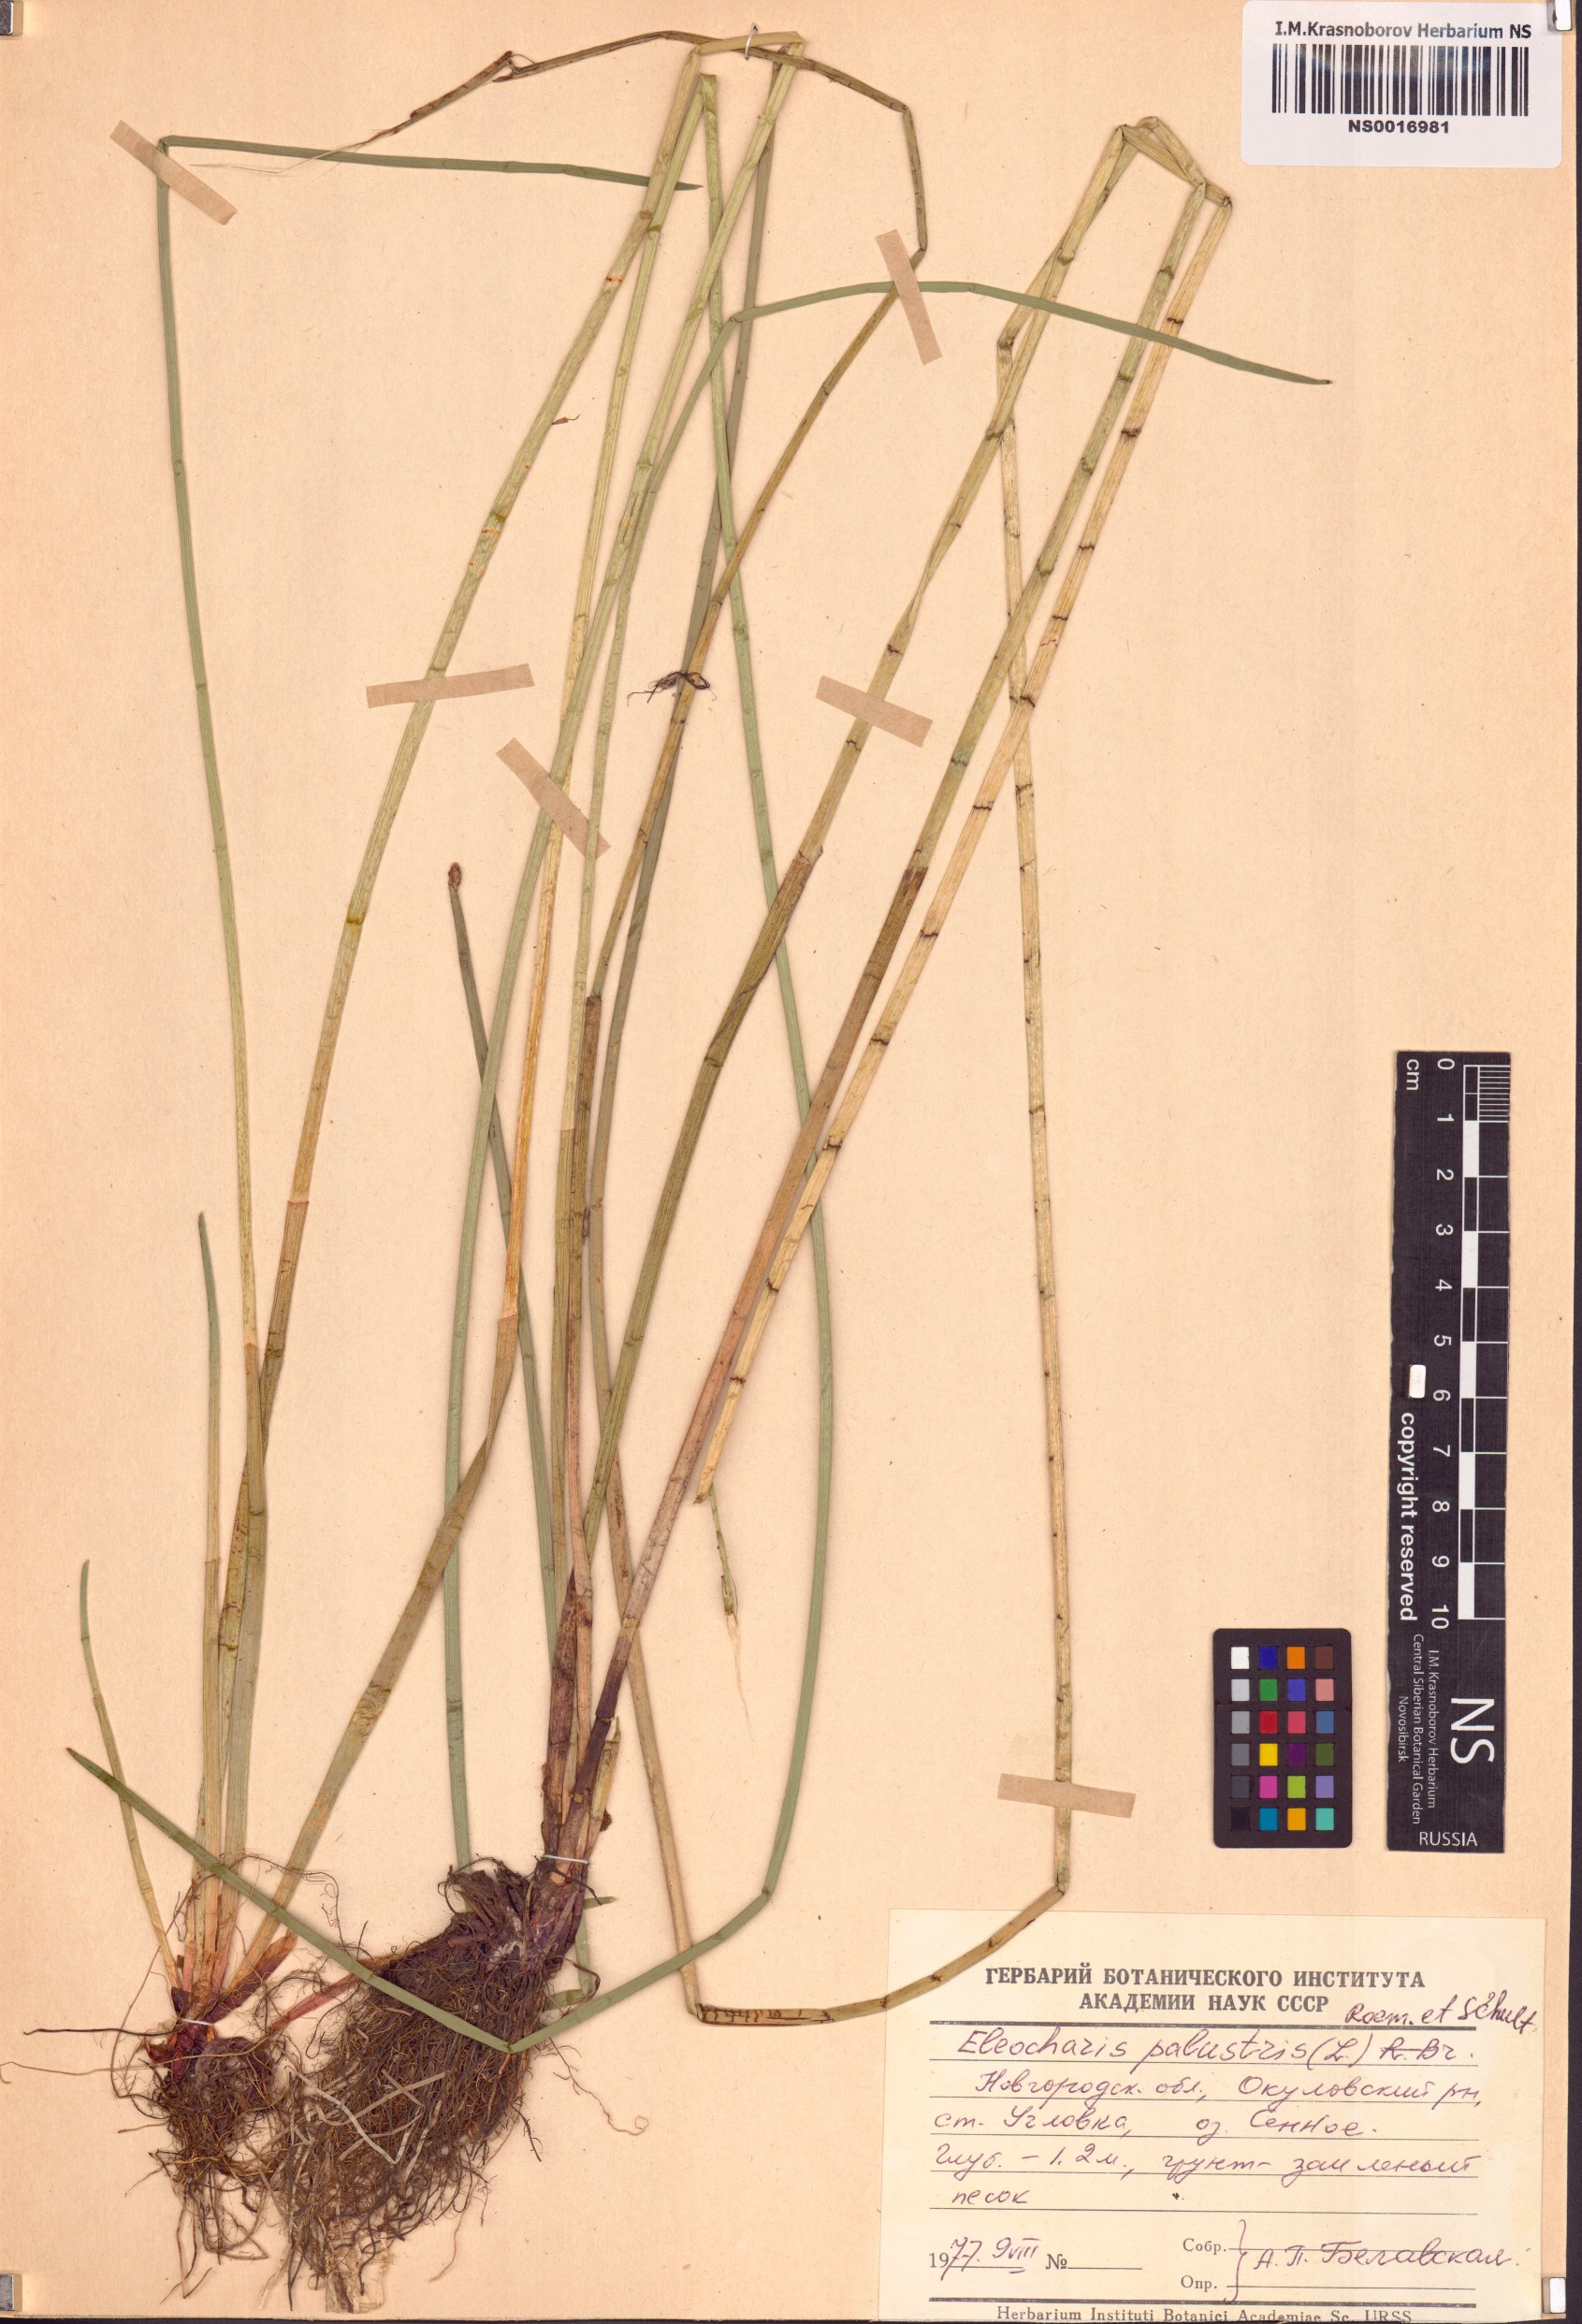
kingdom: Plantae
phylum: Tracheophyta
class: Liliopsida
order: Poales
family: Cyperaceae
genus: Eleocharis
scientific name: Eleocharis palustris
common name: Common spike-rush
